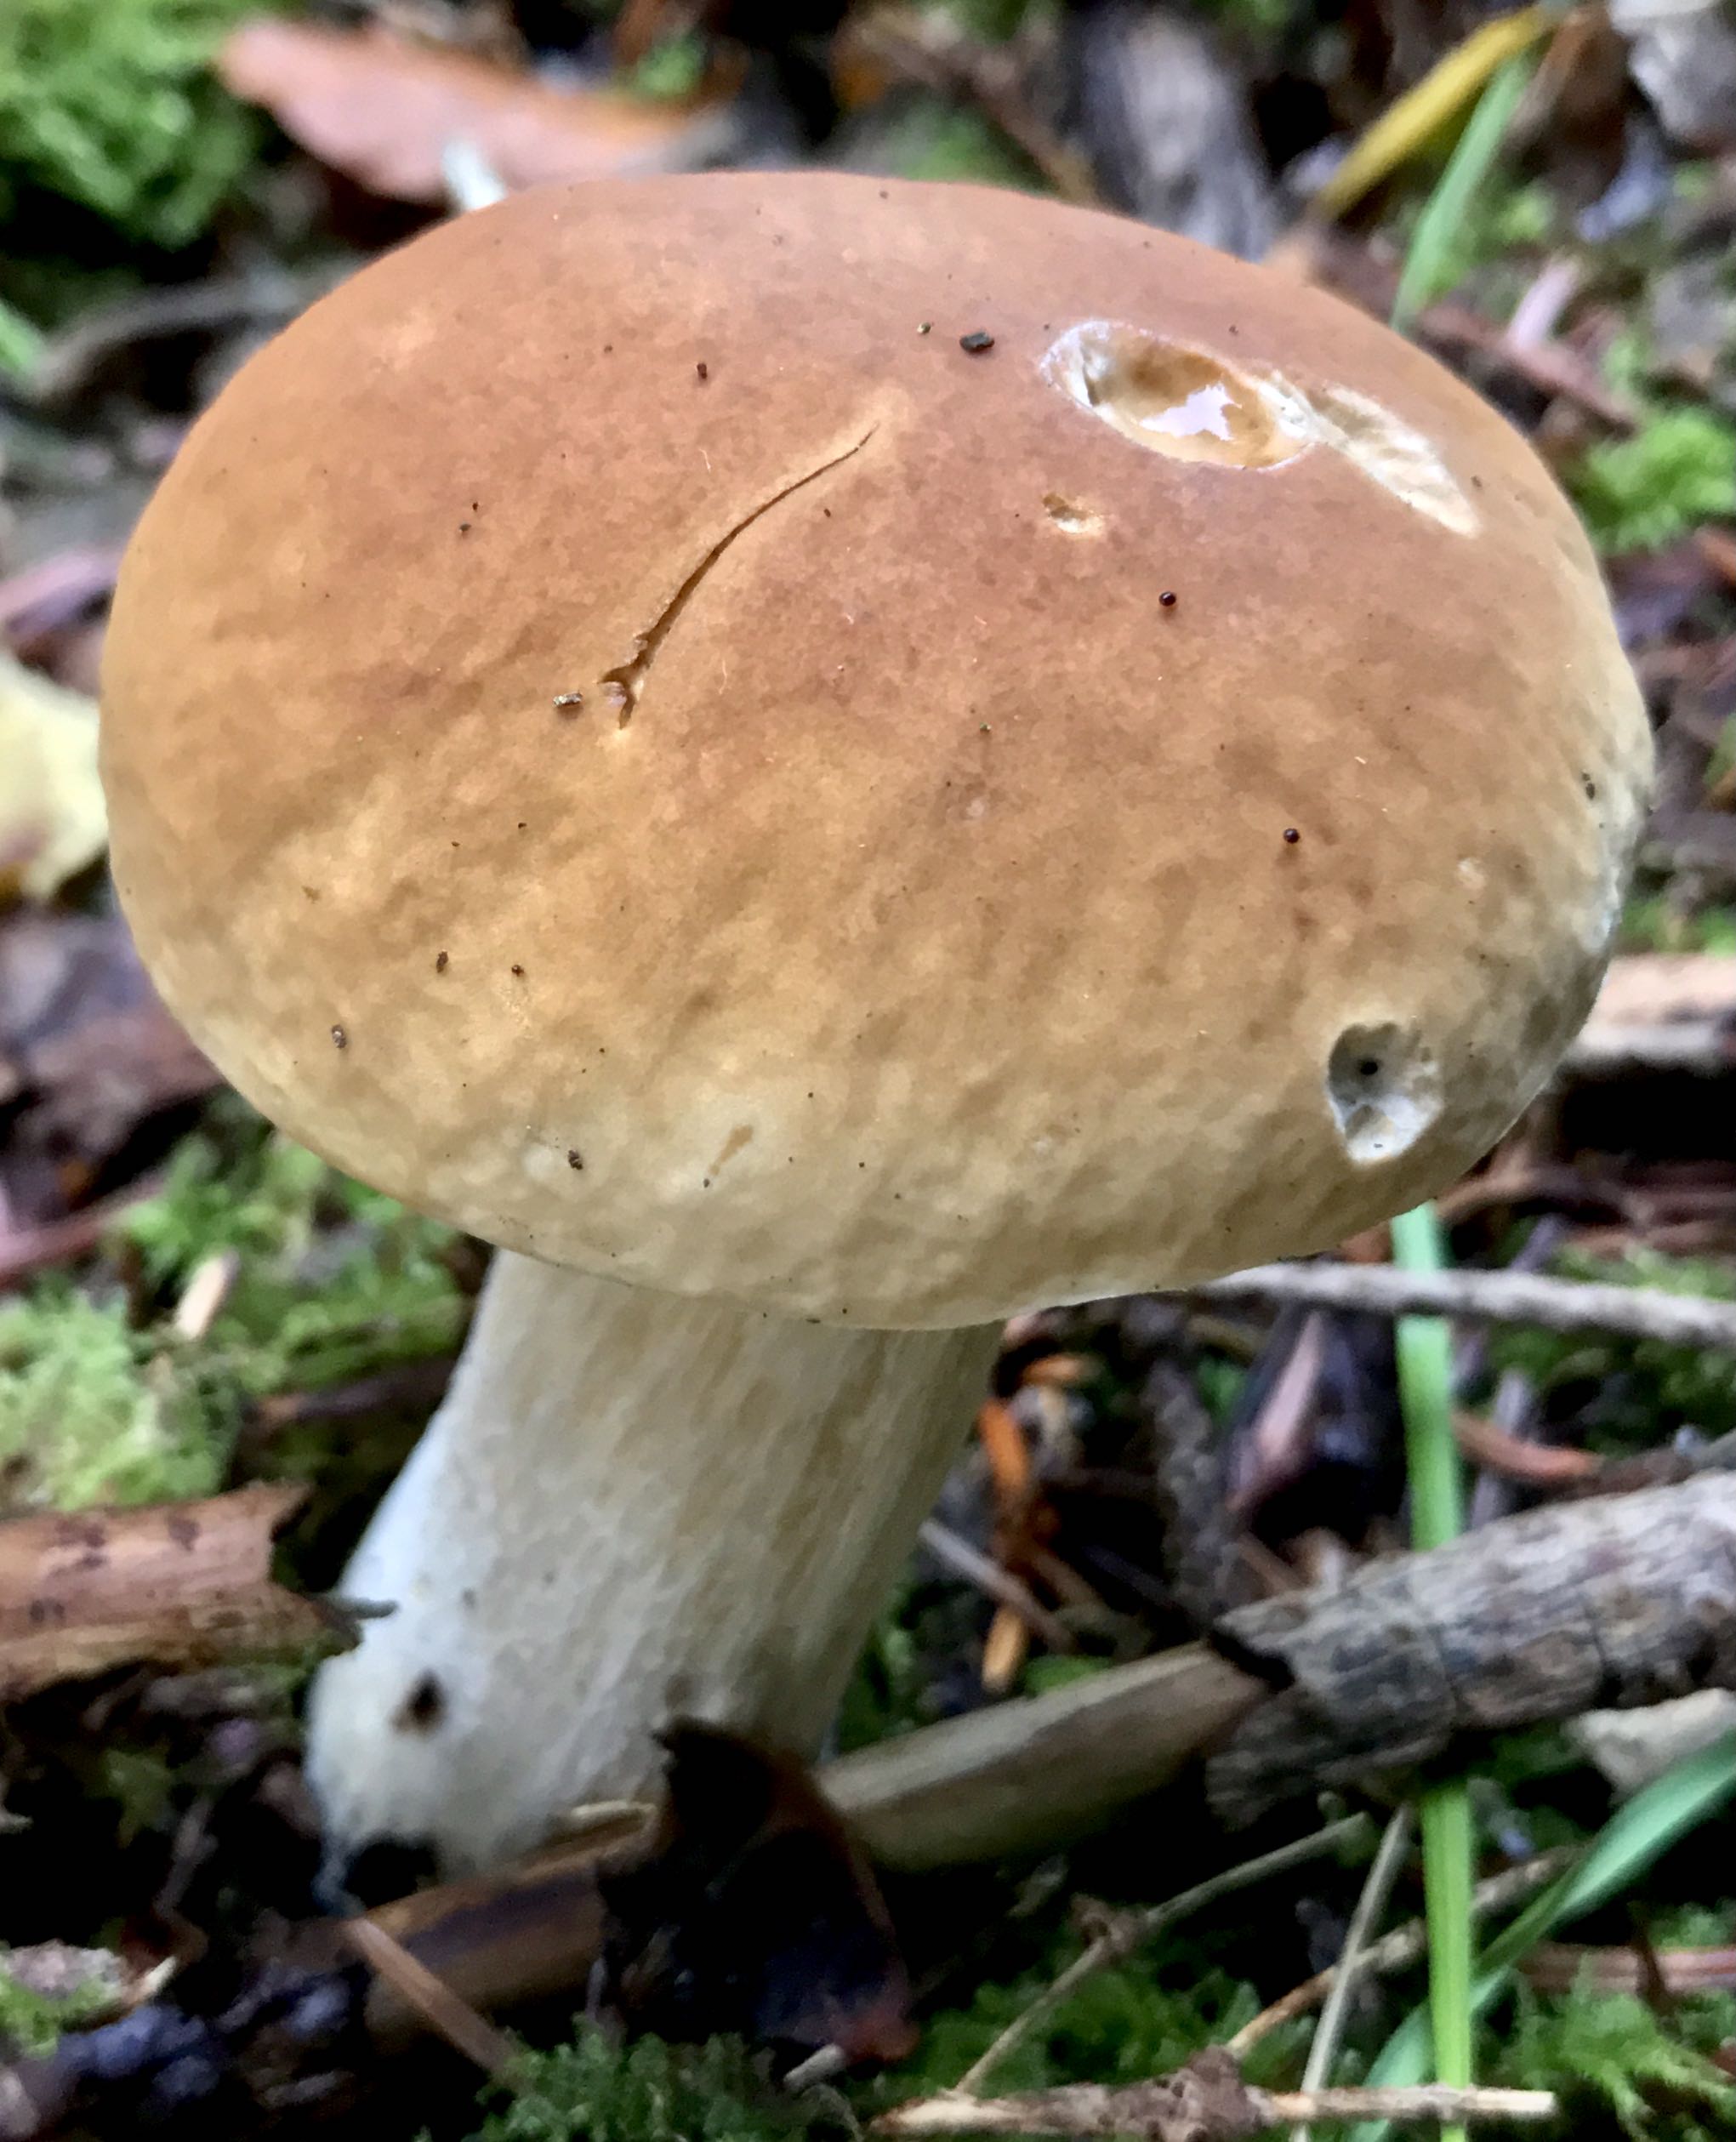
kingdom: Fungi
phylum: Basidiomycota
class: Agaricomycetes
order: Boletales
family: Boletaceae
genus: Boletus
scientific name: Boletus edulis
